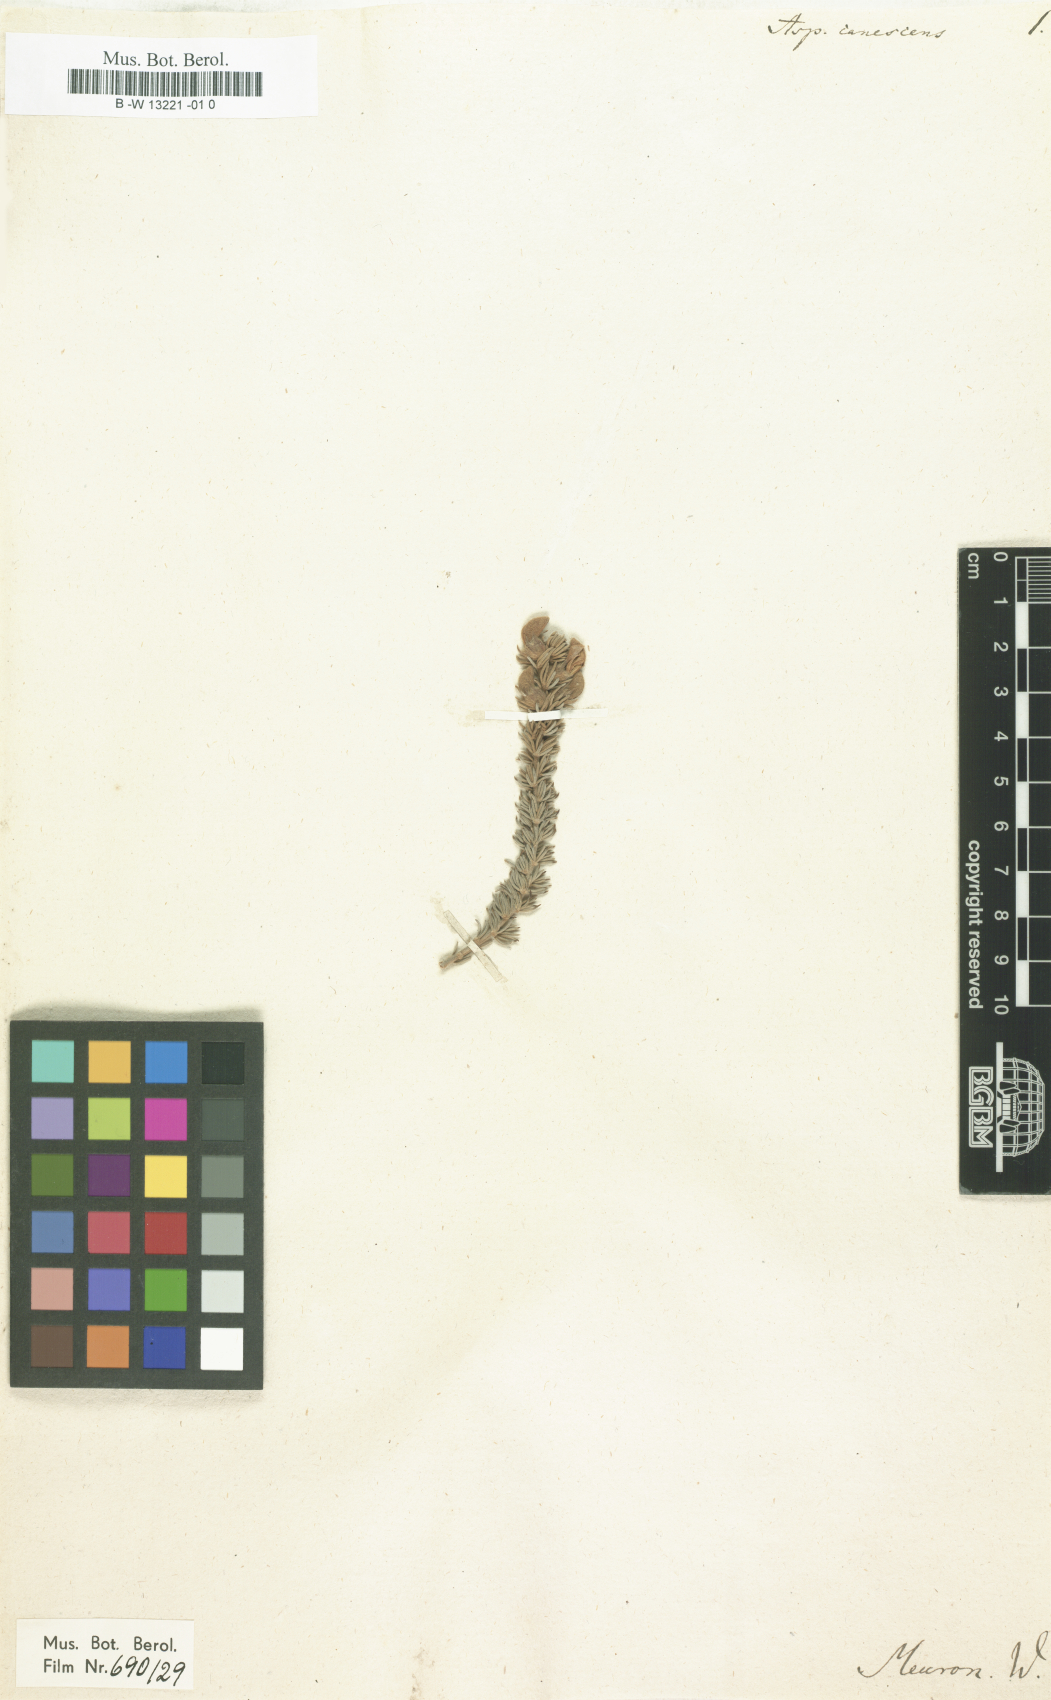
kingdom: Plantae
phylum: Tracheophyta
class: Magnoliopsida
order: Fabales
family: Fabaceae
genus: Aspalathus
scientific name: Aspalathus laricifolia
